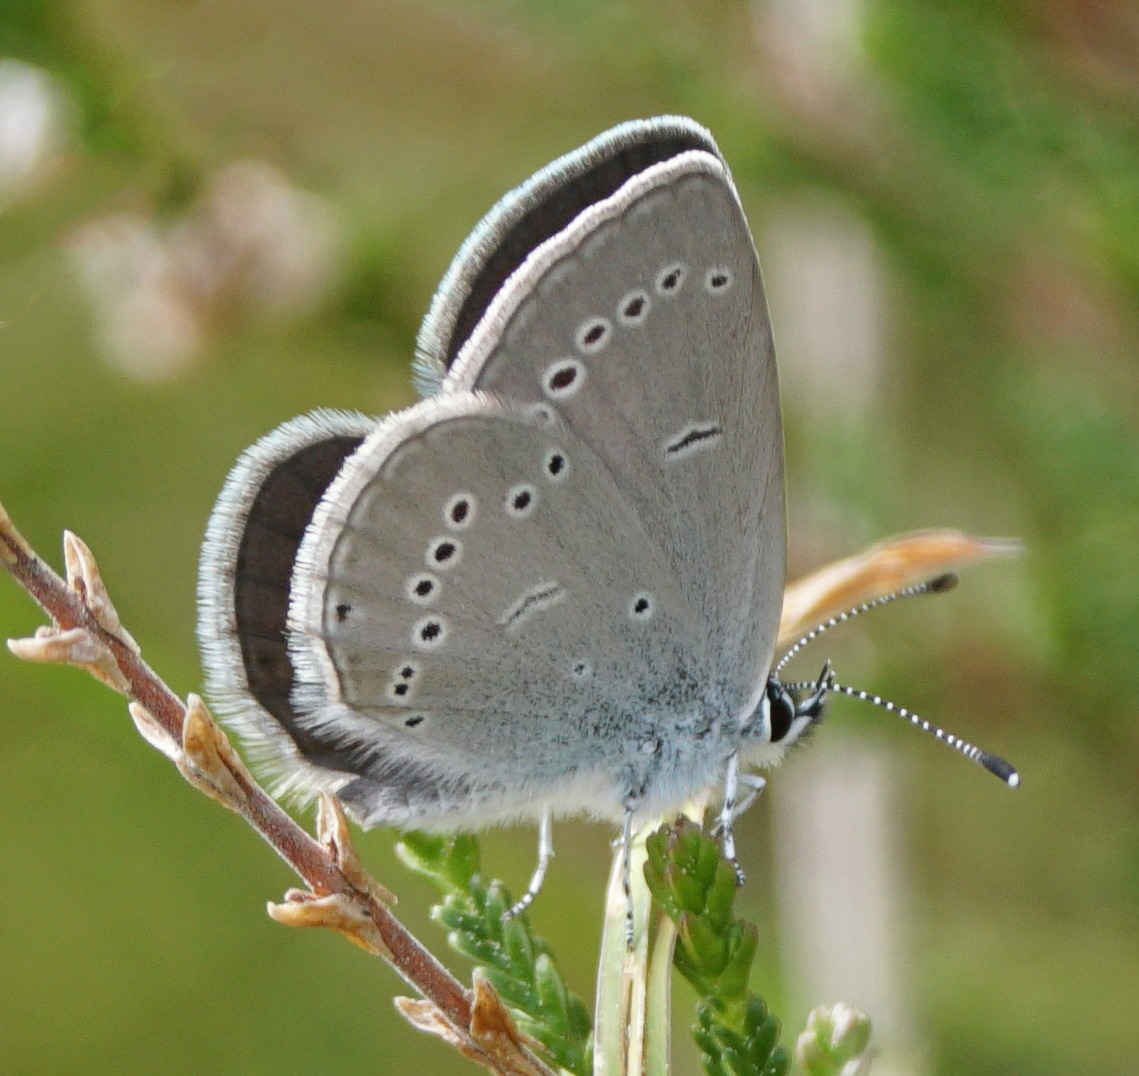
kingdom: Animalia
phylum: Arthropoda
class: Insecta
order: Lepidoptera
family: Lycaenidae
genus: Cupido
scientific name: Cupido minimus
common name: Dværgblåfugl
